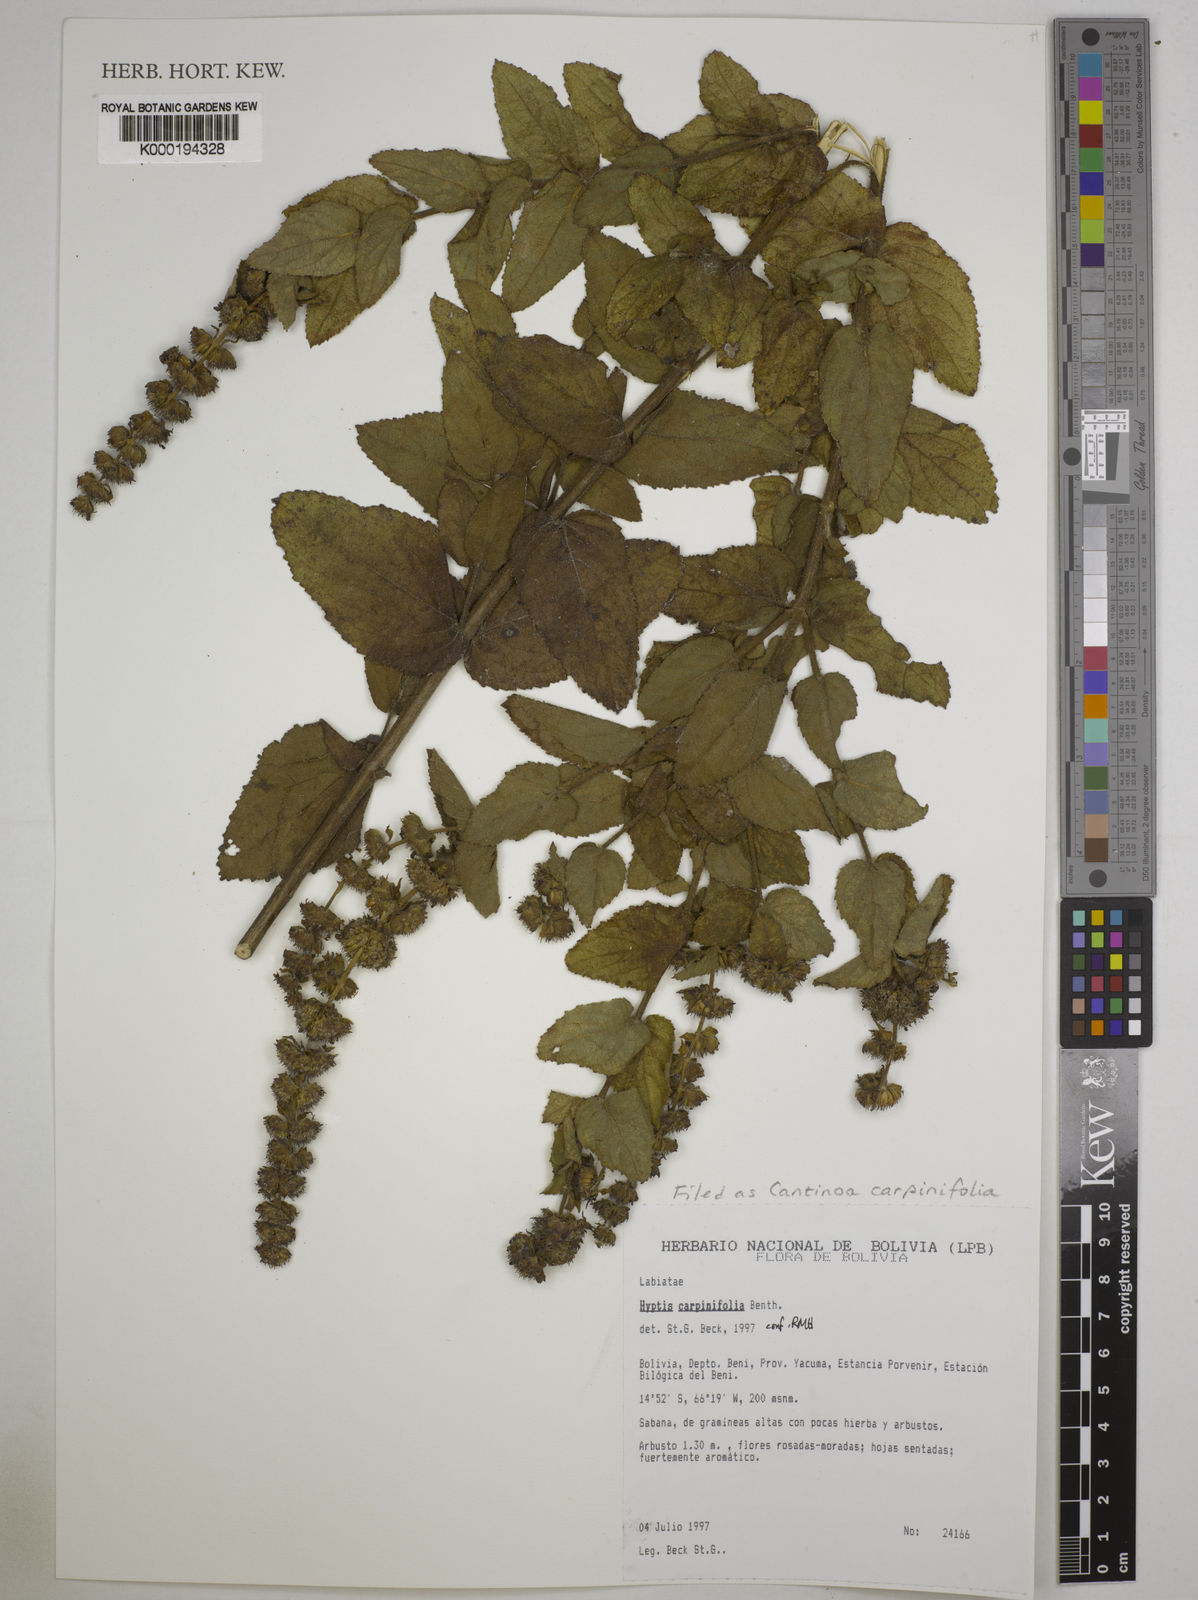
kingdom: Plantae
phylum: Tracheophyta
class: Magnoliopsida
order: Lamiales
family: Lamiaceae
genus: Cantinoa
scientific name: Cantinoa carpinifolia
